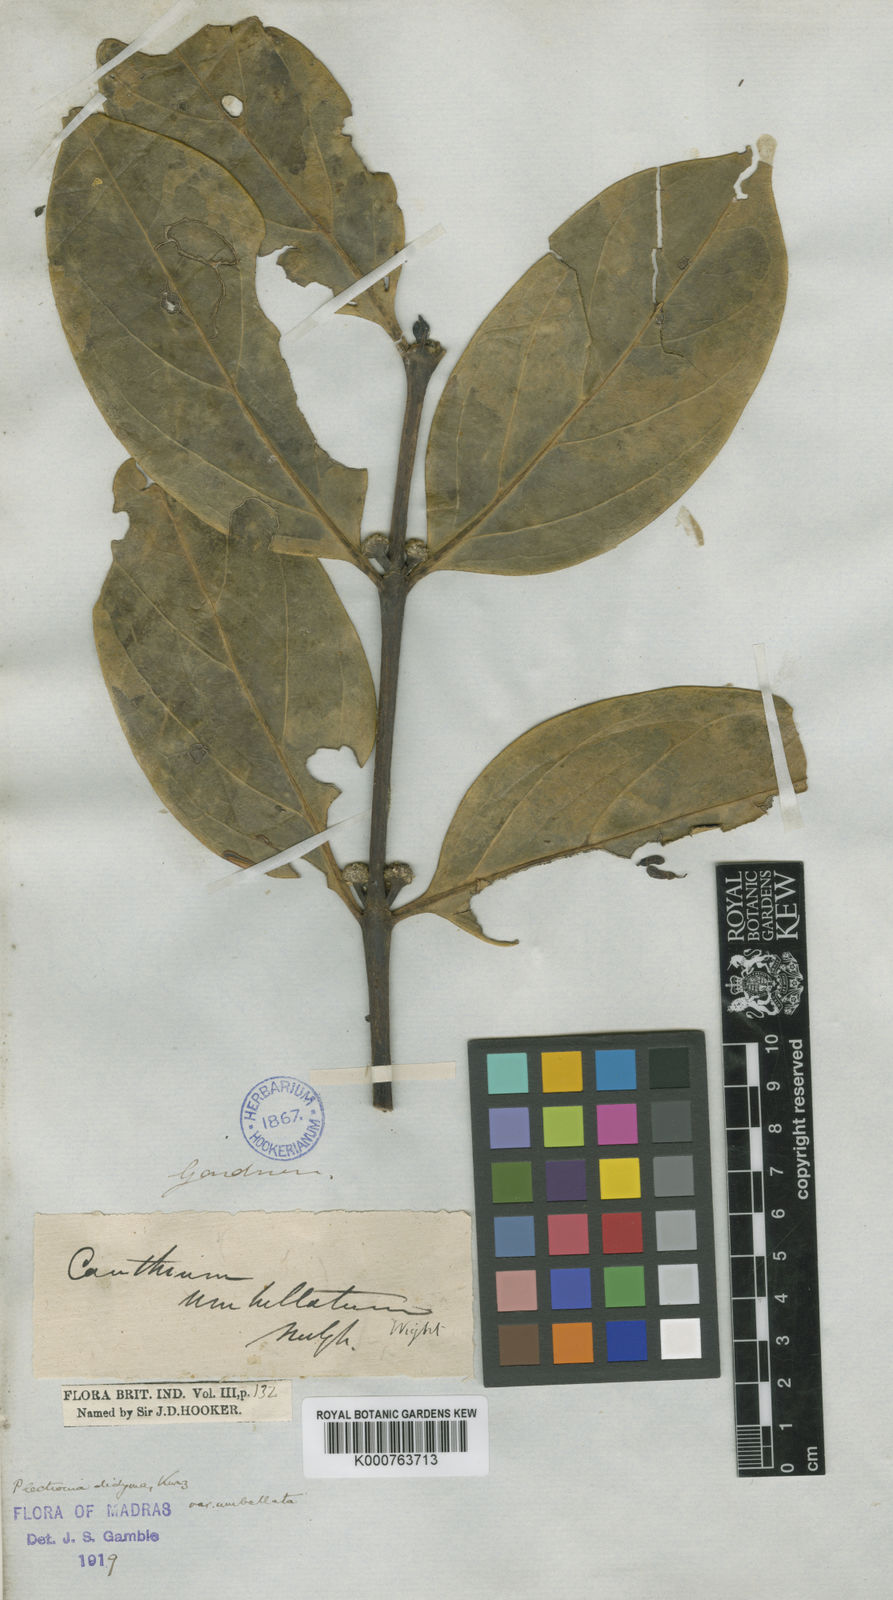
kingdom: Plantae
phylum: Tracheophyta
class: Magnoliopsida
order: Gentianales
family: Rubiaceae
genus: Psydrax
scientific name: Psydrax umbellatus
